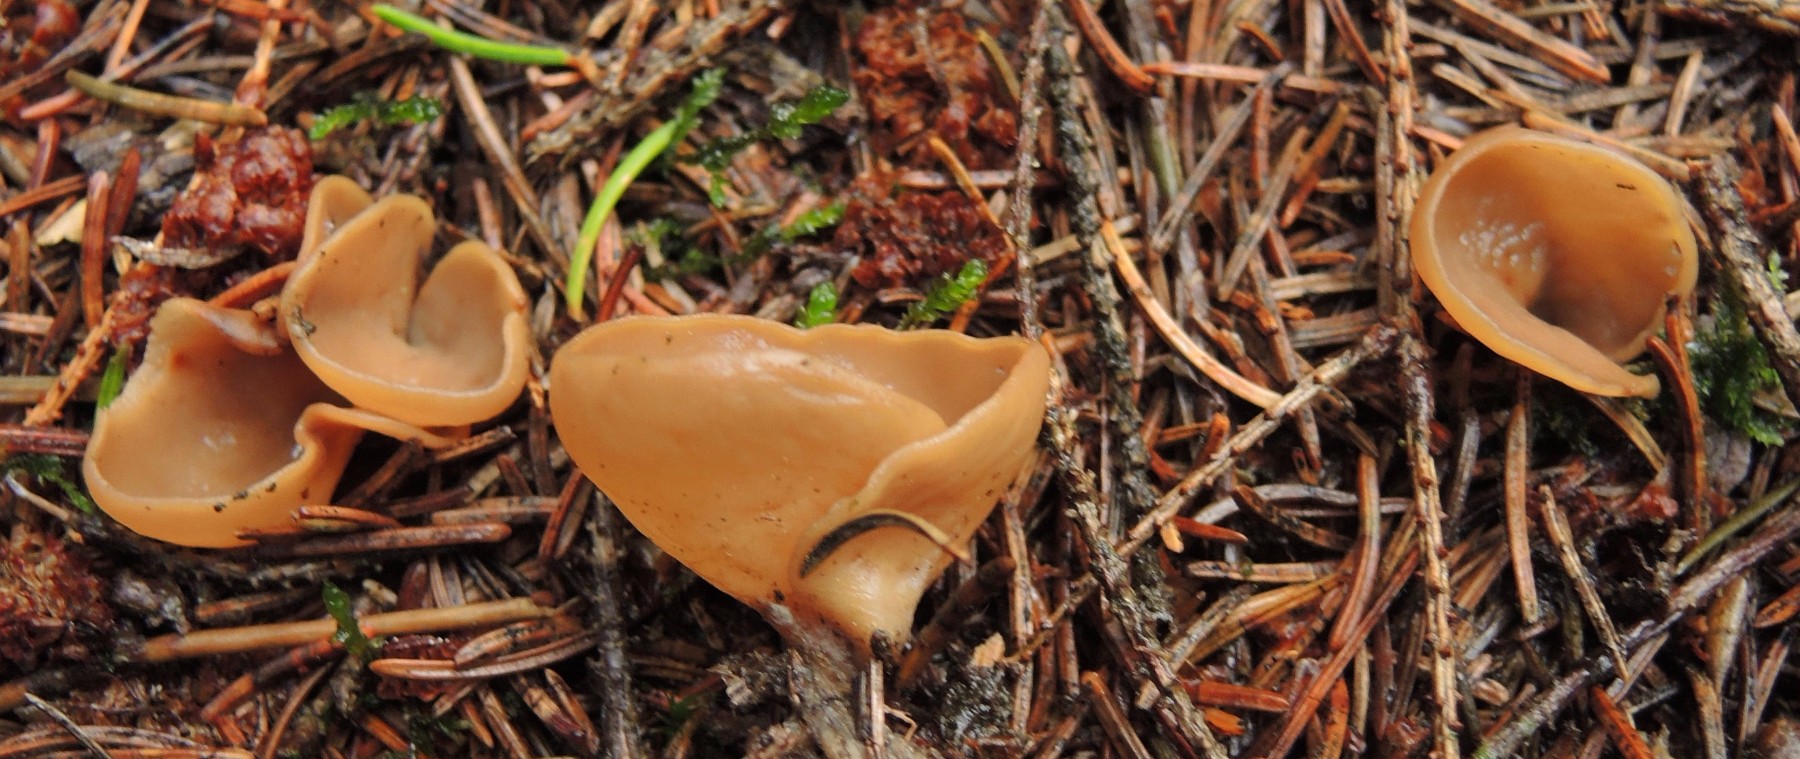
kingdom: Fungi
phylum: Ascomycota
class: Pezizomycetes
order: Pezizales
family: Otideaceae
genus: Otidea
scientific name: Otidea
